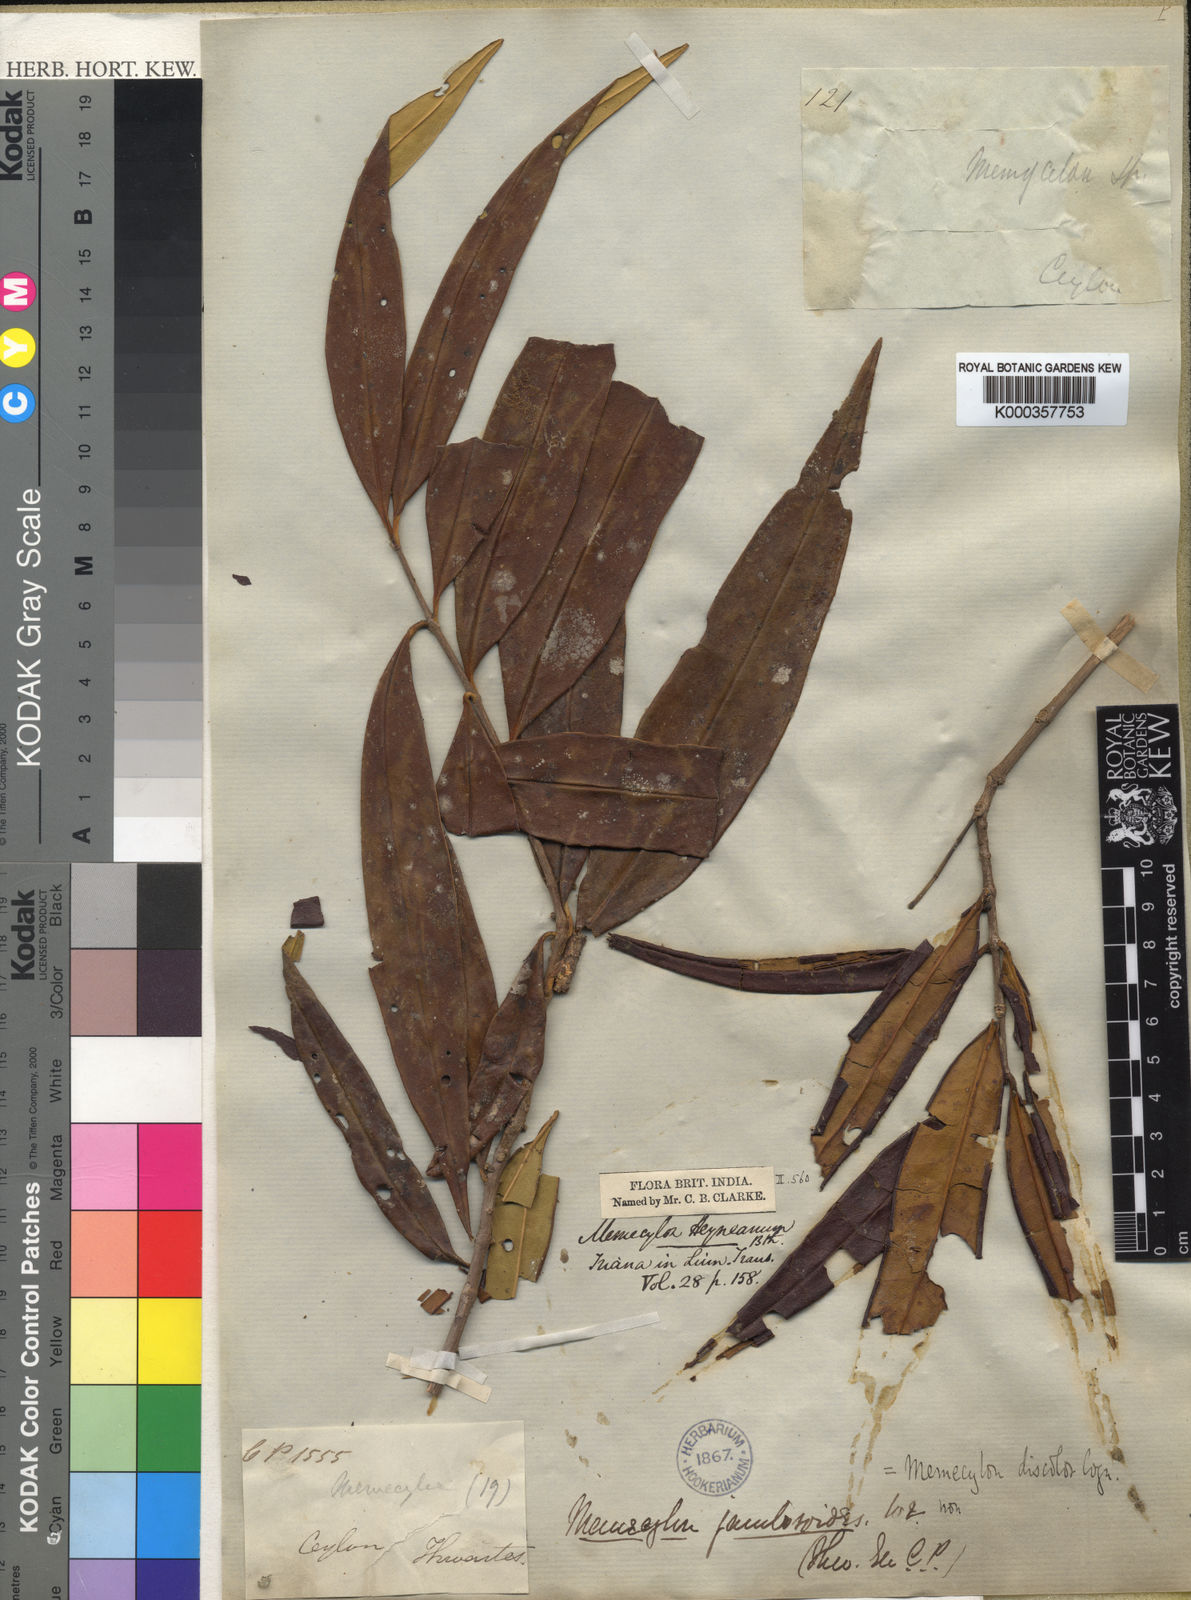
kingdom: Plantae
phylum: Tracheophyta
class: Magnoliopsida
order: Myrtales
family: Melastomataceae
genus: Memecylon
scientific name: Memecylon discolor
